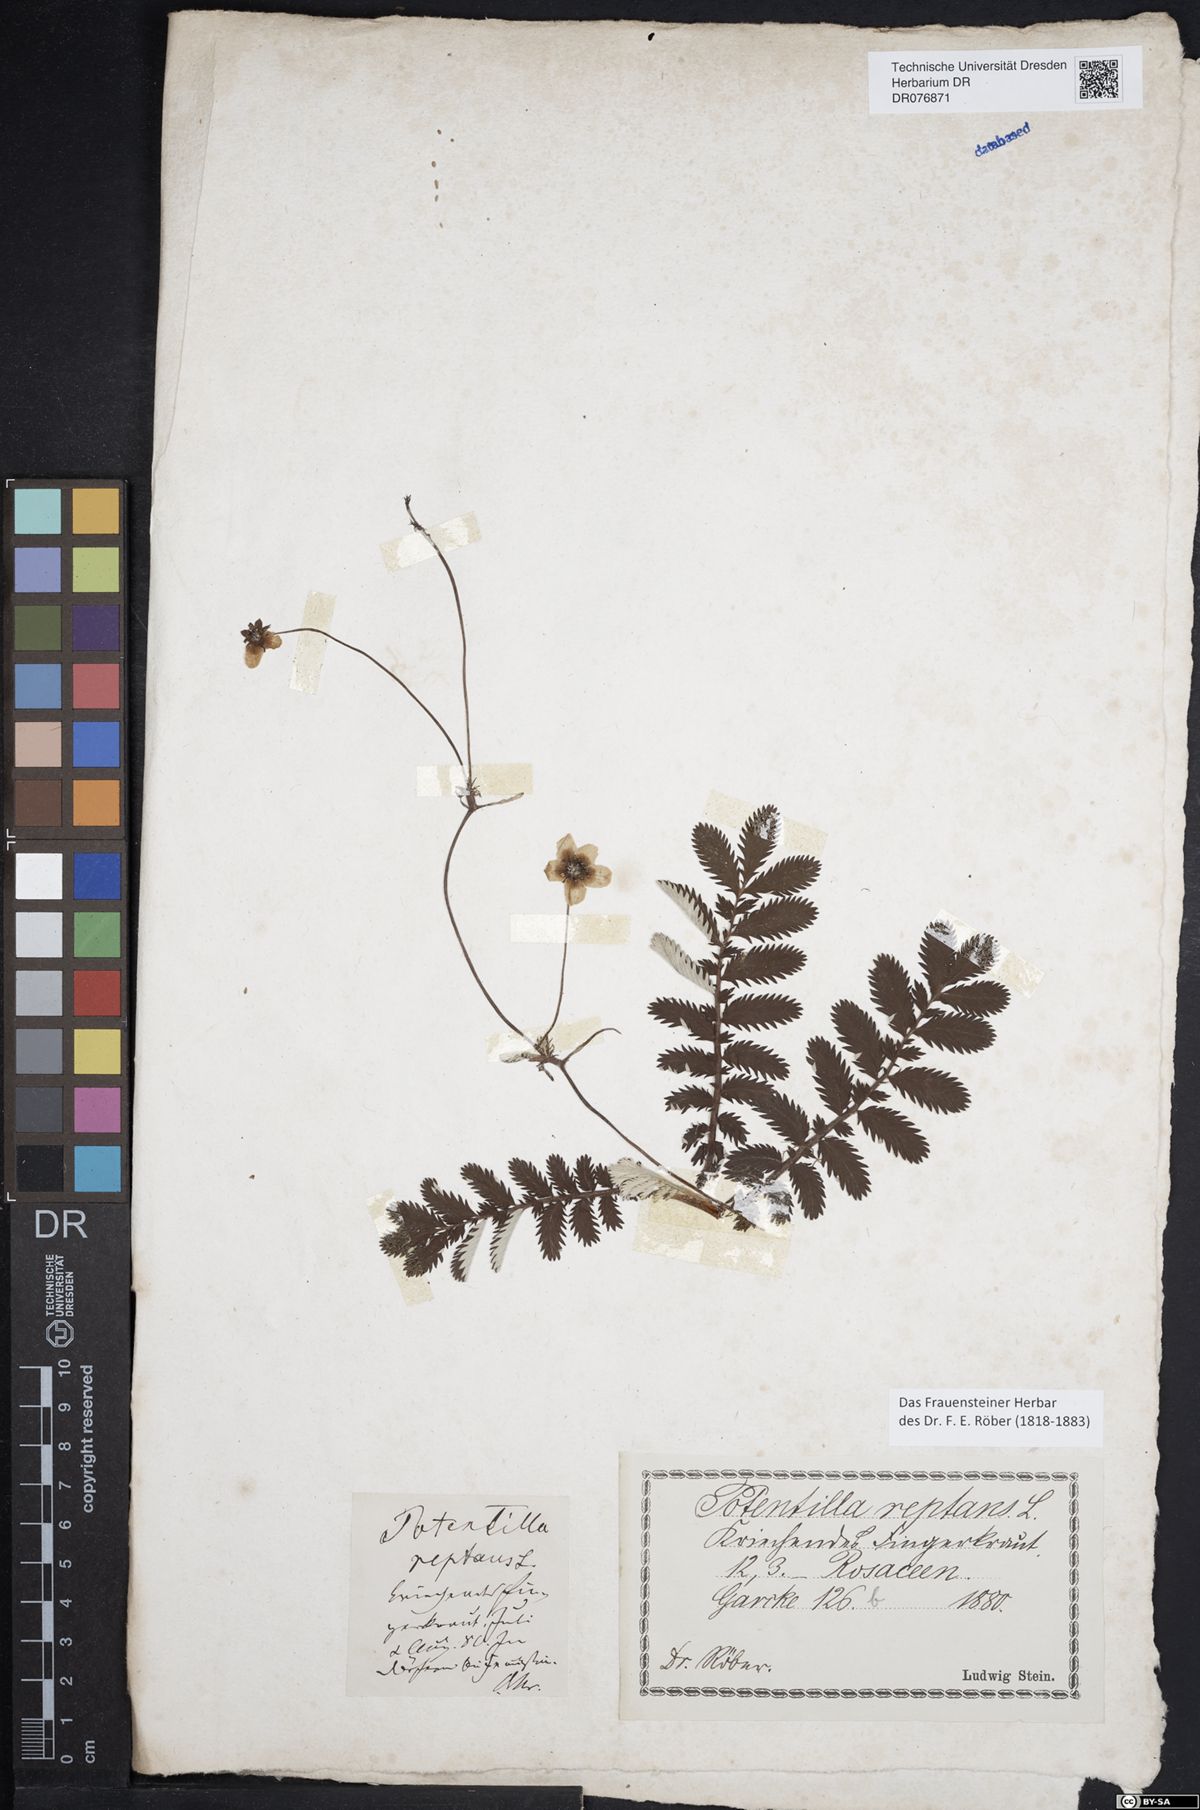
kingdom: Plantae
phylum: Tracheophyta
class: Magnoliopsida
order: Rosales
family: Rosaceae
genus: Argentina
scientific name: Argentina anserina
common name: Common silverweed
